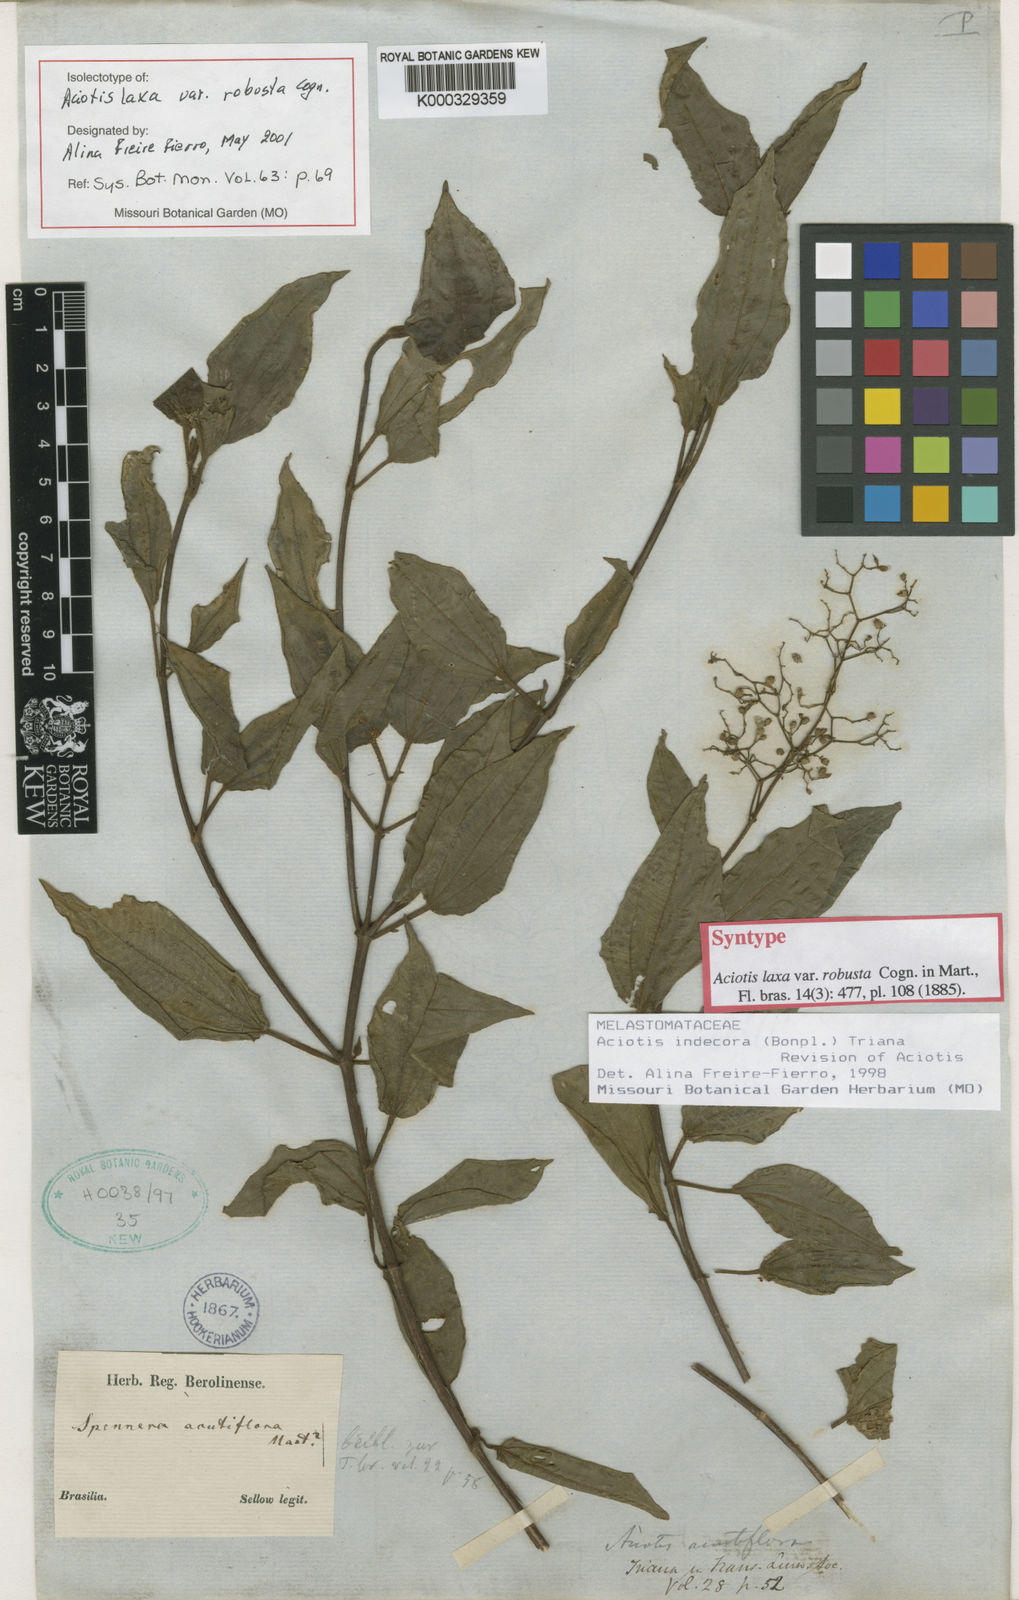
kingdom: Plantae
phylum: Tracheophyta
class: Magnoliopsida
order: Myrtales
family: Melastomataceae
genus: Aciotis
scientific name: Aciotis indecora
